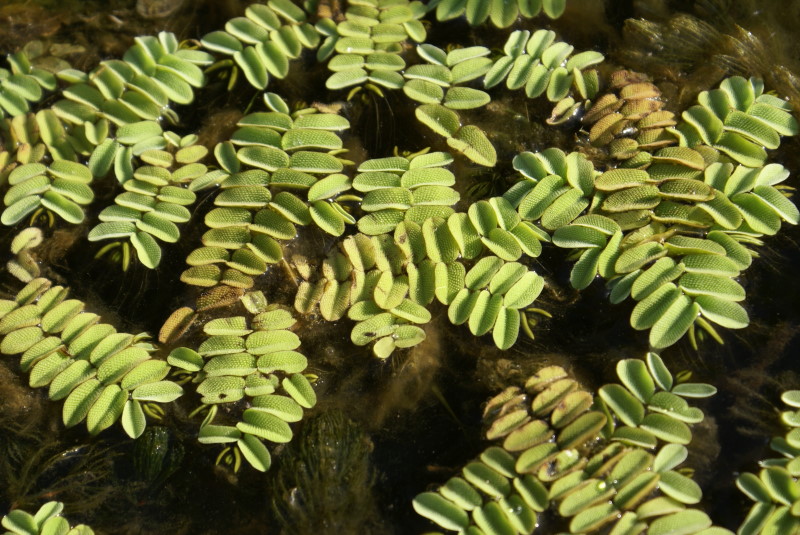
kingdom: Plantae
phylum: Tracheophyta
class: Polypodiopsida
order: Salviniales
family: Salviniaceae
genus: Salvinia
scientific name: Salvinia natans
